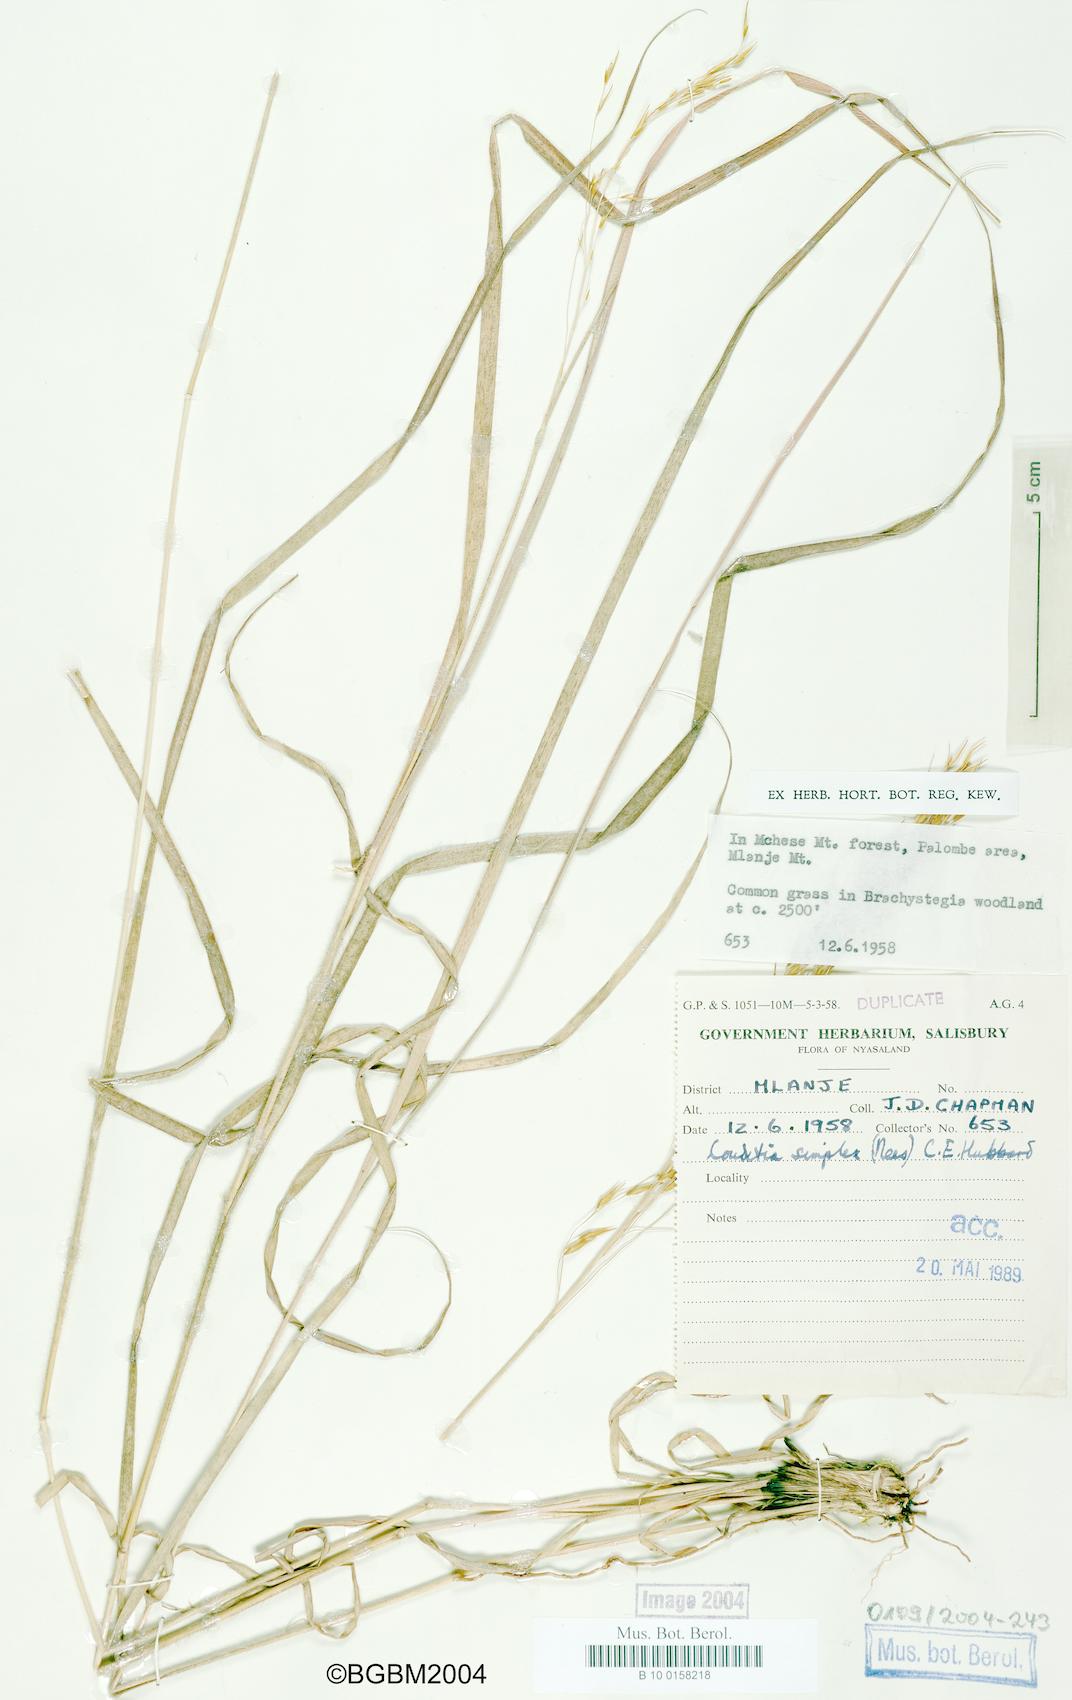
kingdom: Plantae
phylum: Tracheophyta
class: Liliopsida
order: Poales
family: Poaceae
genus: Loudetia
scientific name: Loudetia simplex
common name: Common russet grass
